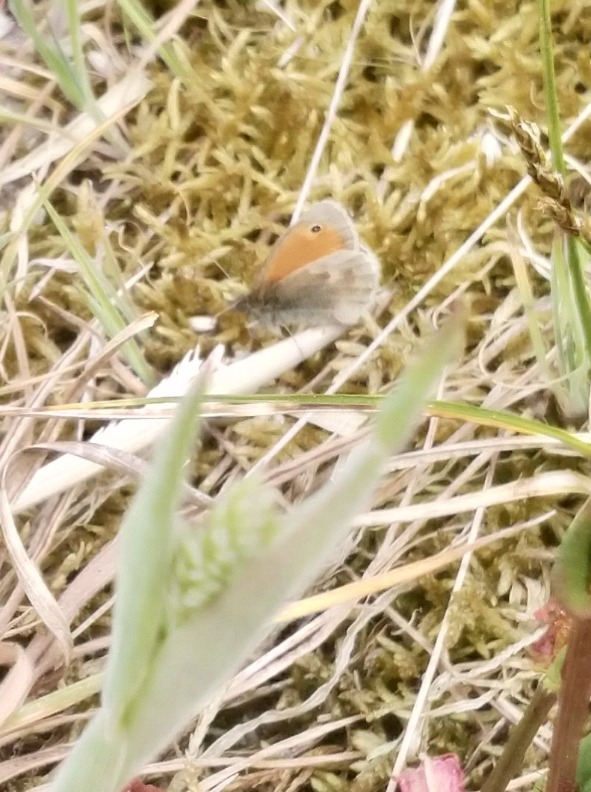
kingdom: Animalia
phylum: Arthropoda
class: Insecta
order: Lepidoptera
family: Nymphalidae
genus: Coenonympha
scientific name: Coenonympha pamphilus
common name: Okkergul randøje
